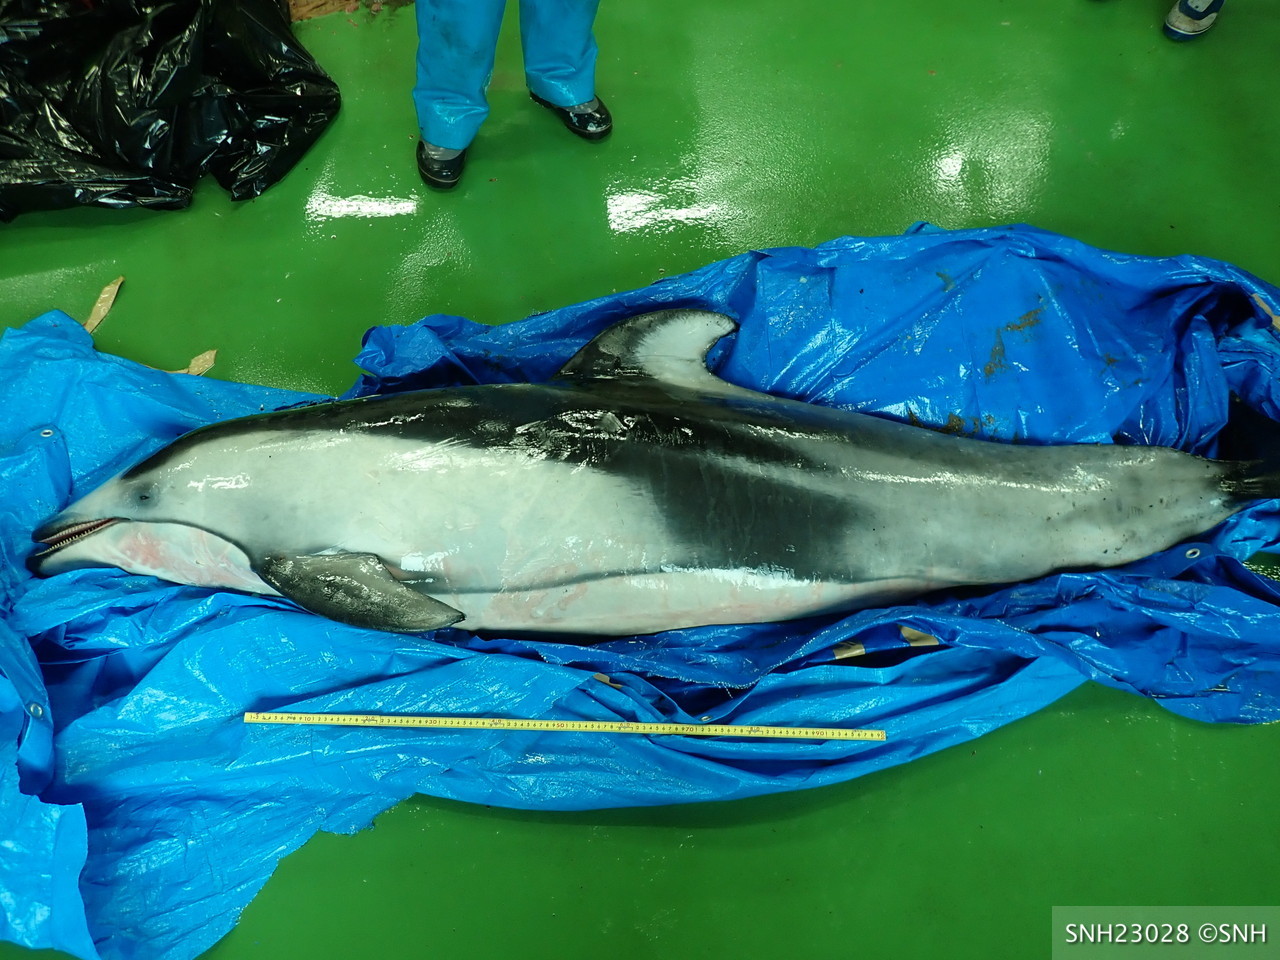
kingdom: Animalia
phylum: Chordata
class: Mammalia
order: Cetacea
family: Delphinidae
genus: Lagenorhynchus
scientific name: Lagenorhynchus obliquidens
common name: Pacific white-sided dolphin
